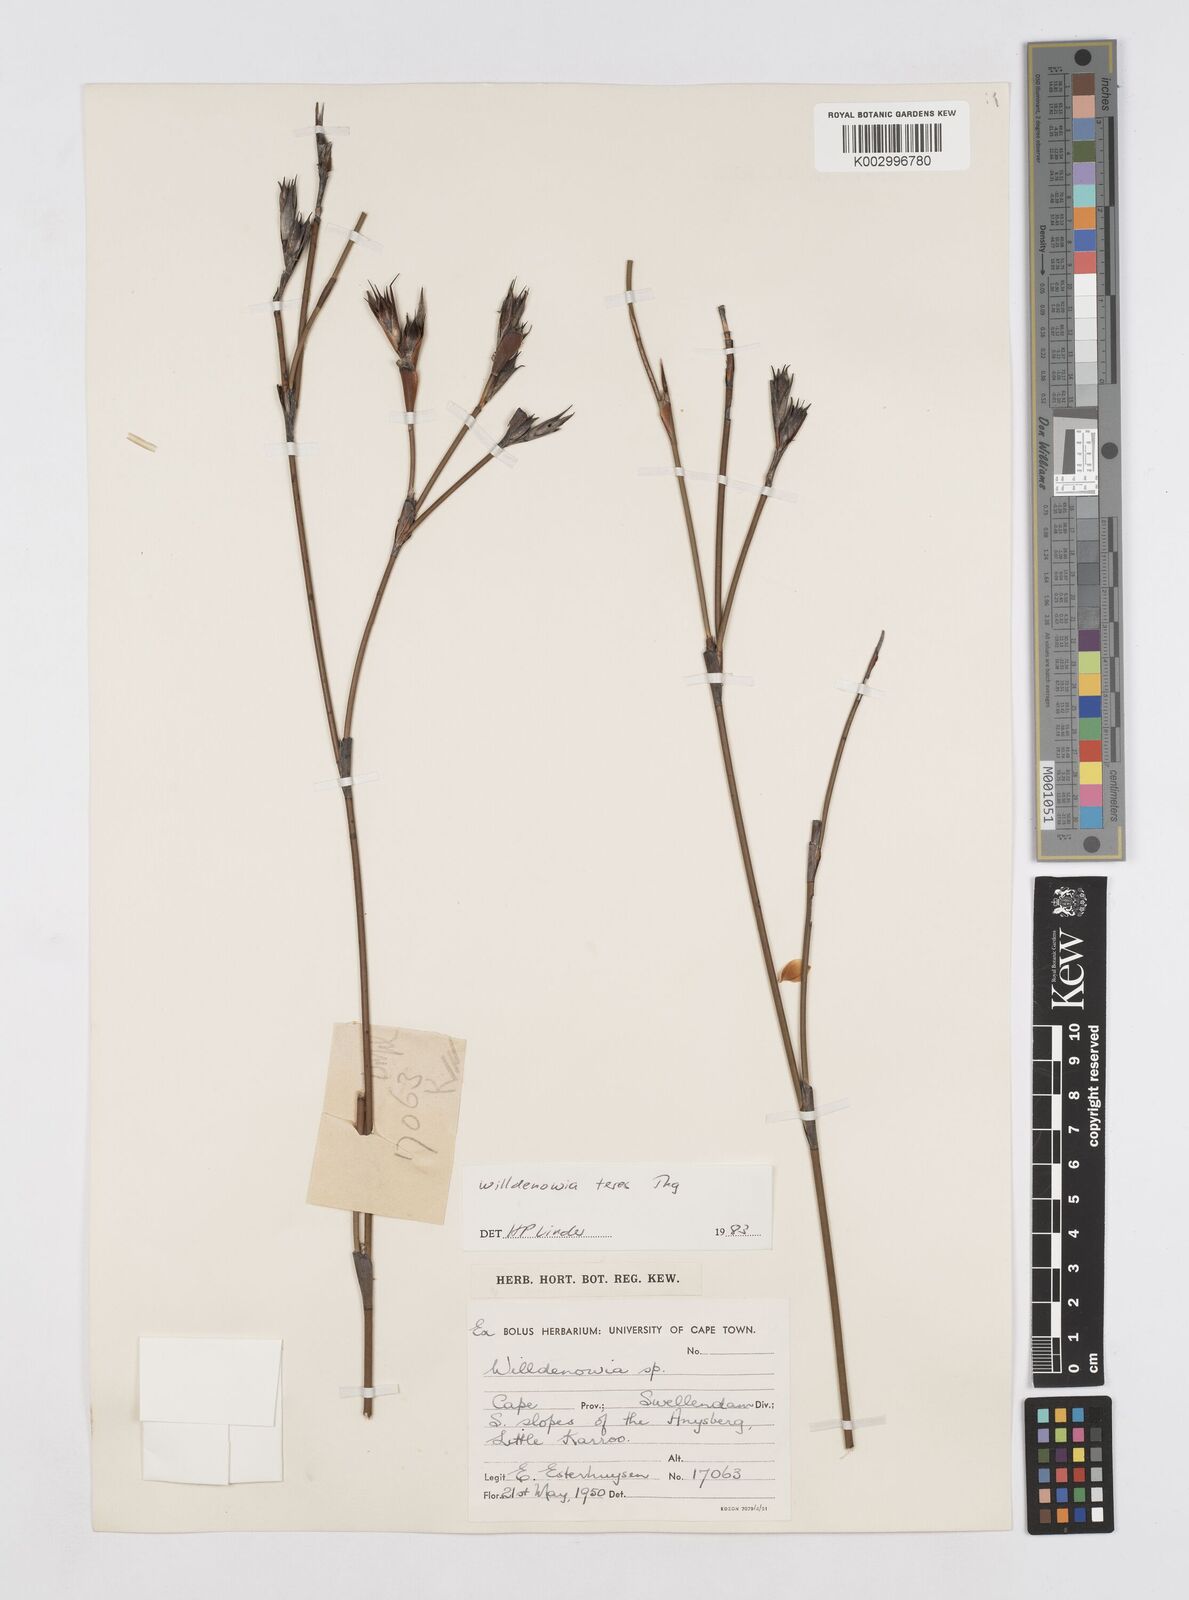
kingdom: Plantae
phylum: Tracheophyta
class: Liliopsida
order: Poales
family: Restionaceae
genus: Willdenowia
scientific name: Willdenowia teres
